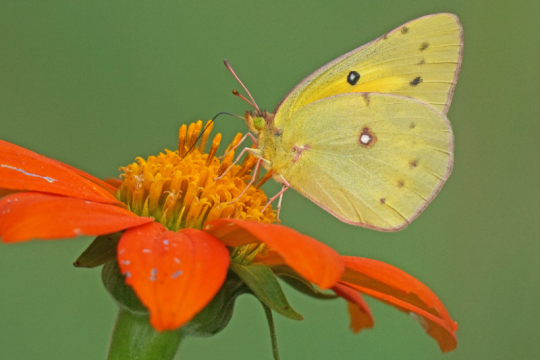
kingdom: Animalia
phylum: Arthropoda
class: Insecta
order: Lepidoptera
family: Pieridae
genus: Colias
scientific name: Colias eurytheme
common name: Orange Sulphur
